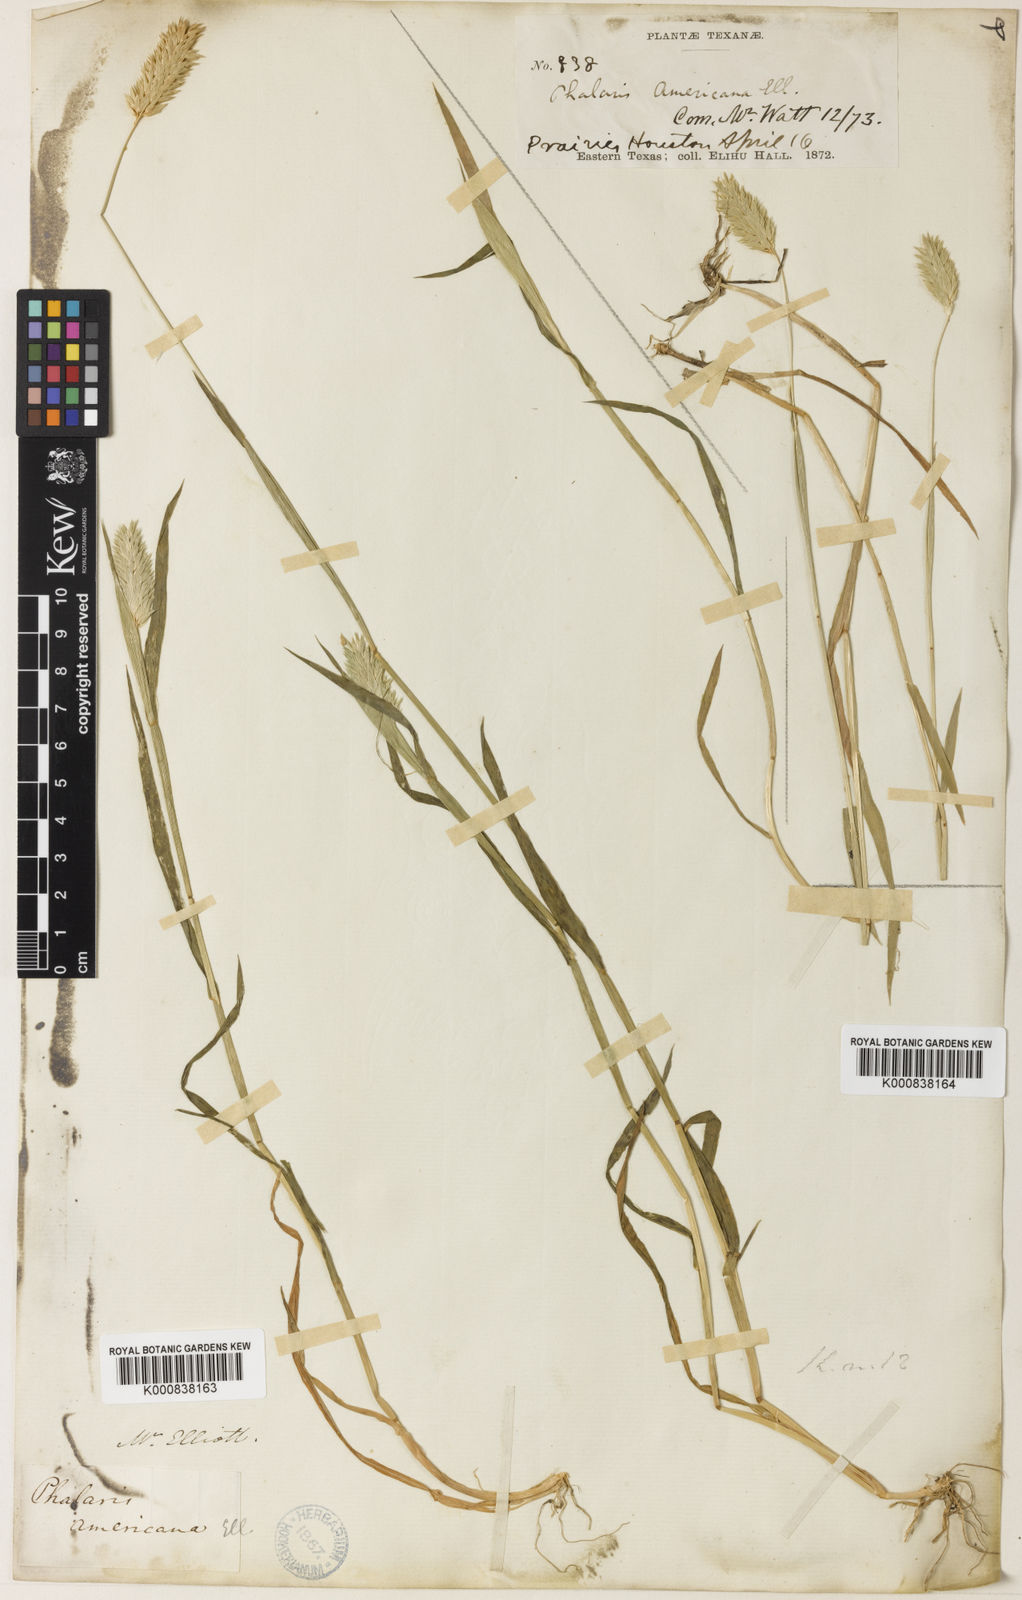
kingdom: Plantae
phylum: Tracheophyta
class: Liliopsida
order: Poales
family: Poaceae
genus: Phalaris
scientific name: Phalaris caroliniana
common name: May grass
